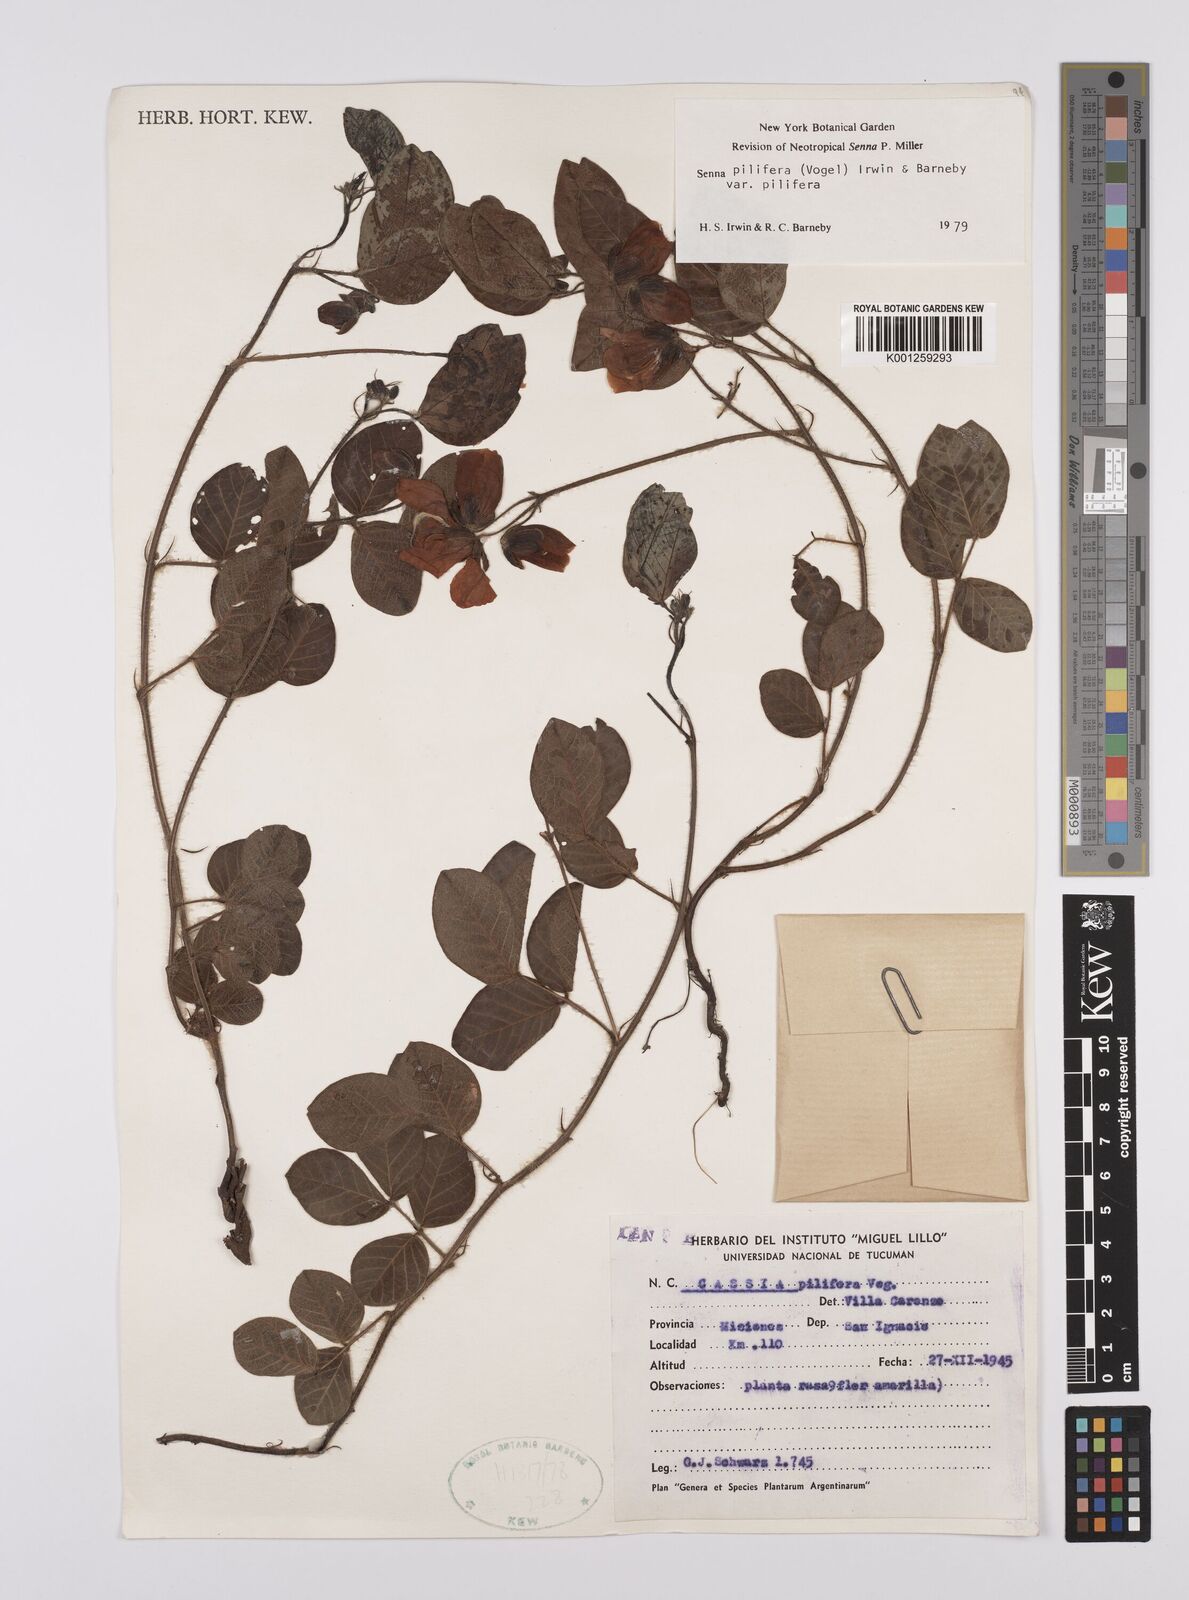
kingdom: Plantae
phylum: Tracheophyta
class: Magnoliopsida
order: Fabales
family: Fabaceae
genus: Senna
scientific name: Senna pilifera
